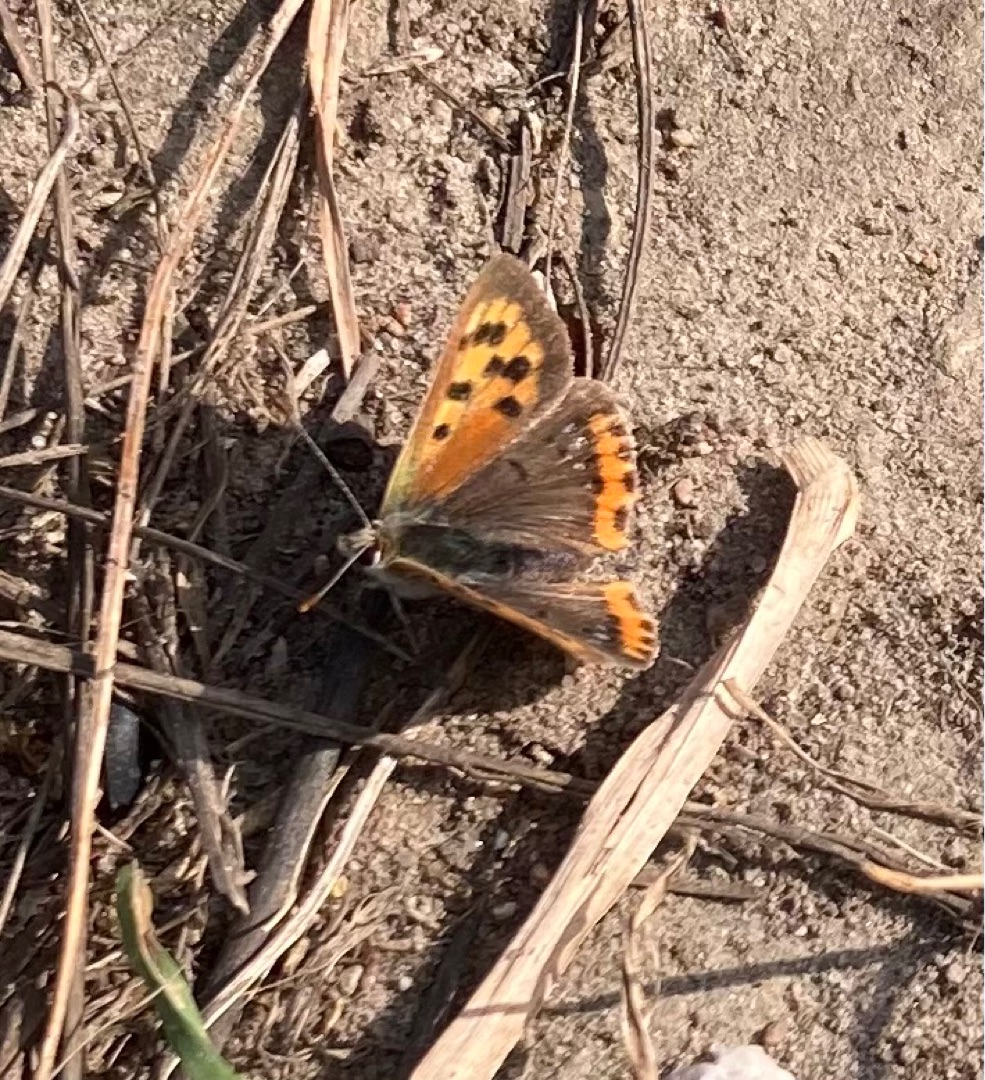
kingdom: Animalia
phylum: Arthropoda
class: Insecta
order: Lepidoptera
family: Lycaenidae
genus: Lycaena
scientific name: Lycaena phlaeas
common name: Lille ildfugl
